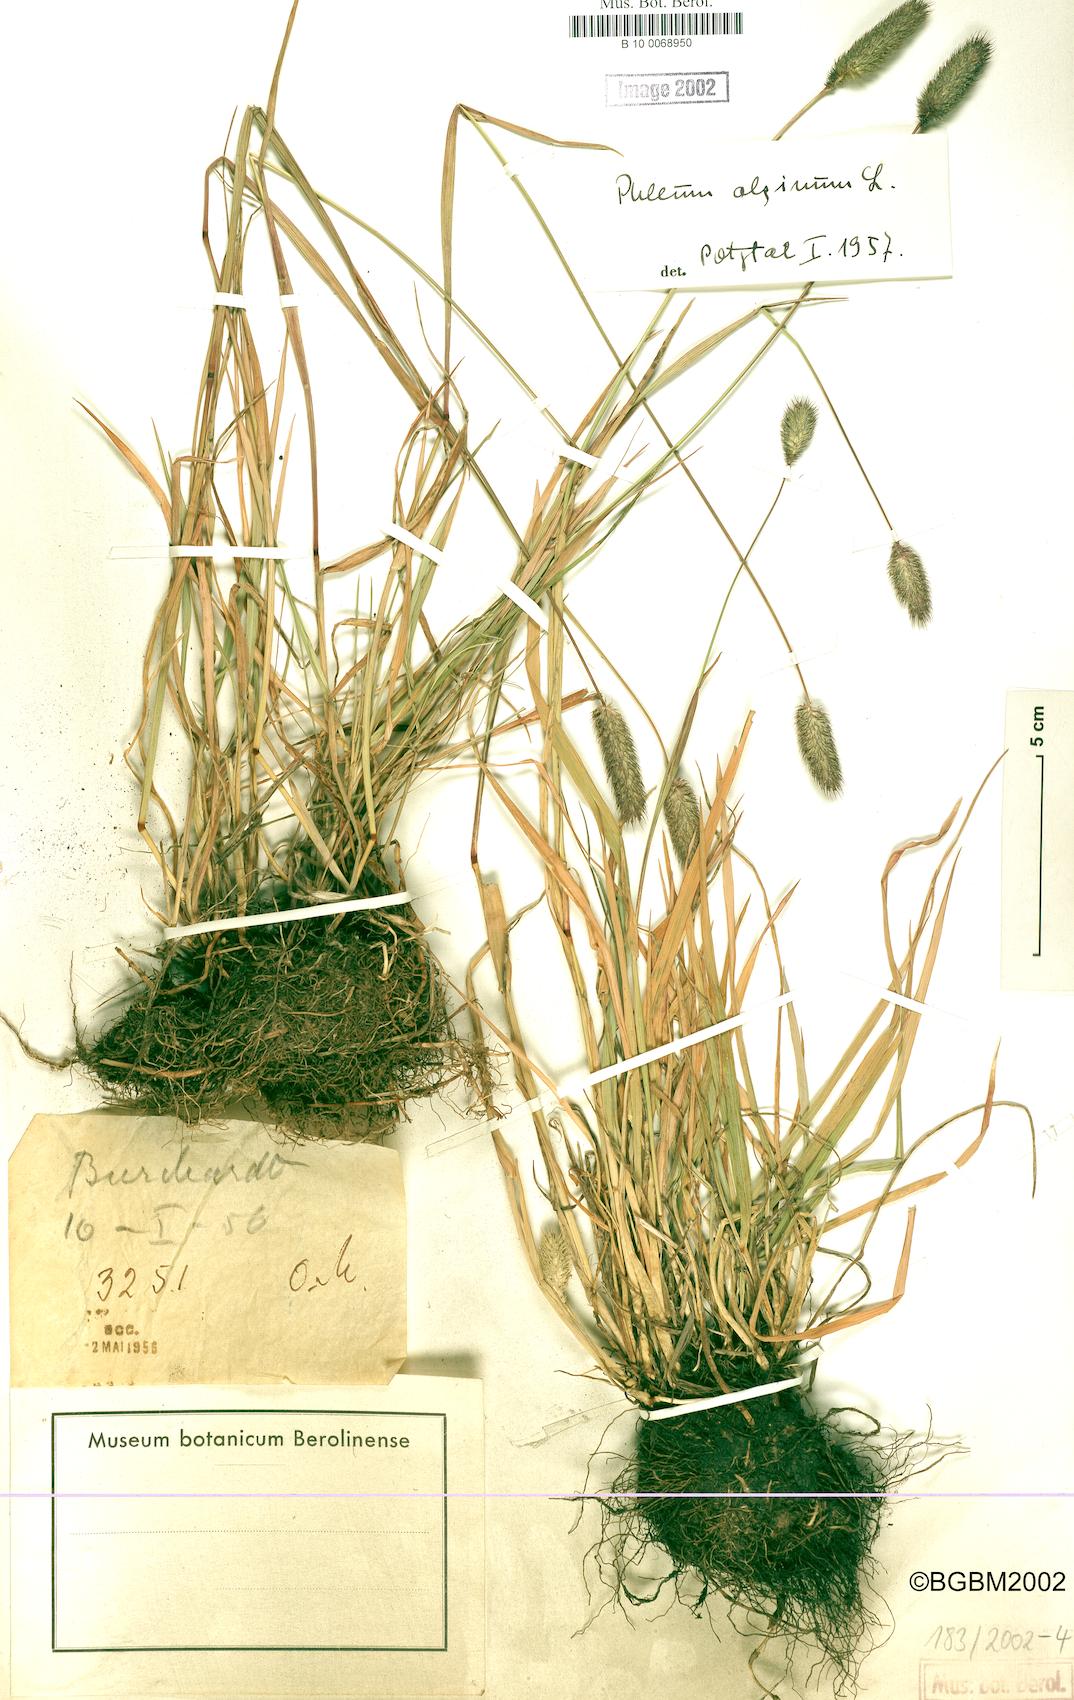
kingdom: Plantae
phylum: Tracheophyta
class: Liliopsida
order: Poales
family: Poaceae
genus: Phleum
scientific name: Phleum alpinum
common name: Alpine cat's-tail
